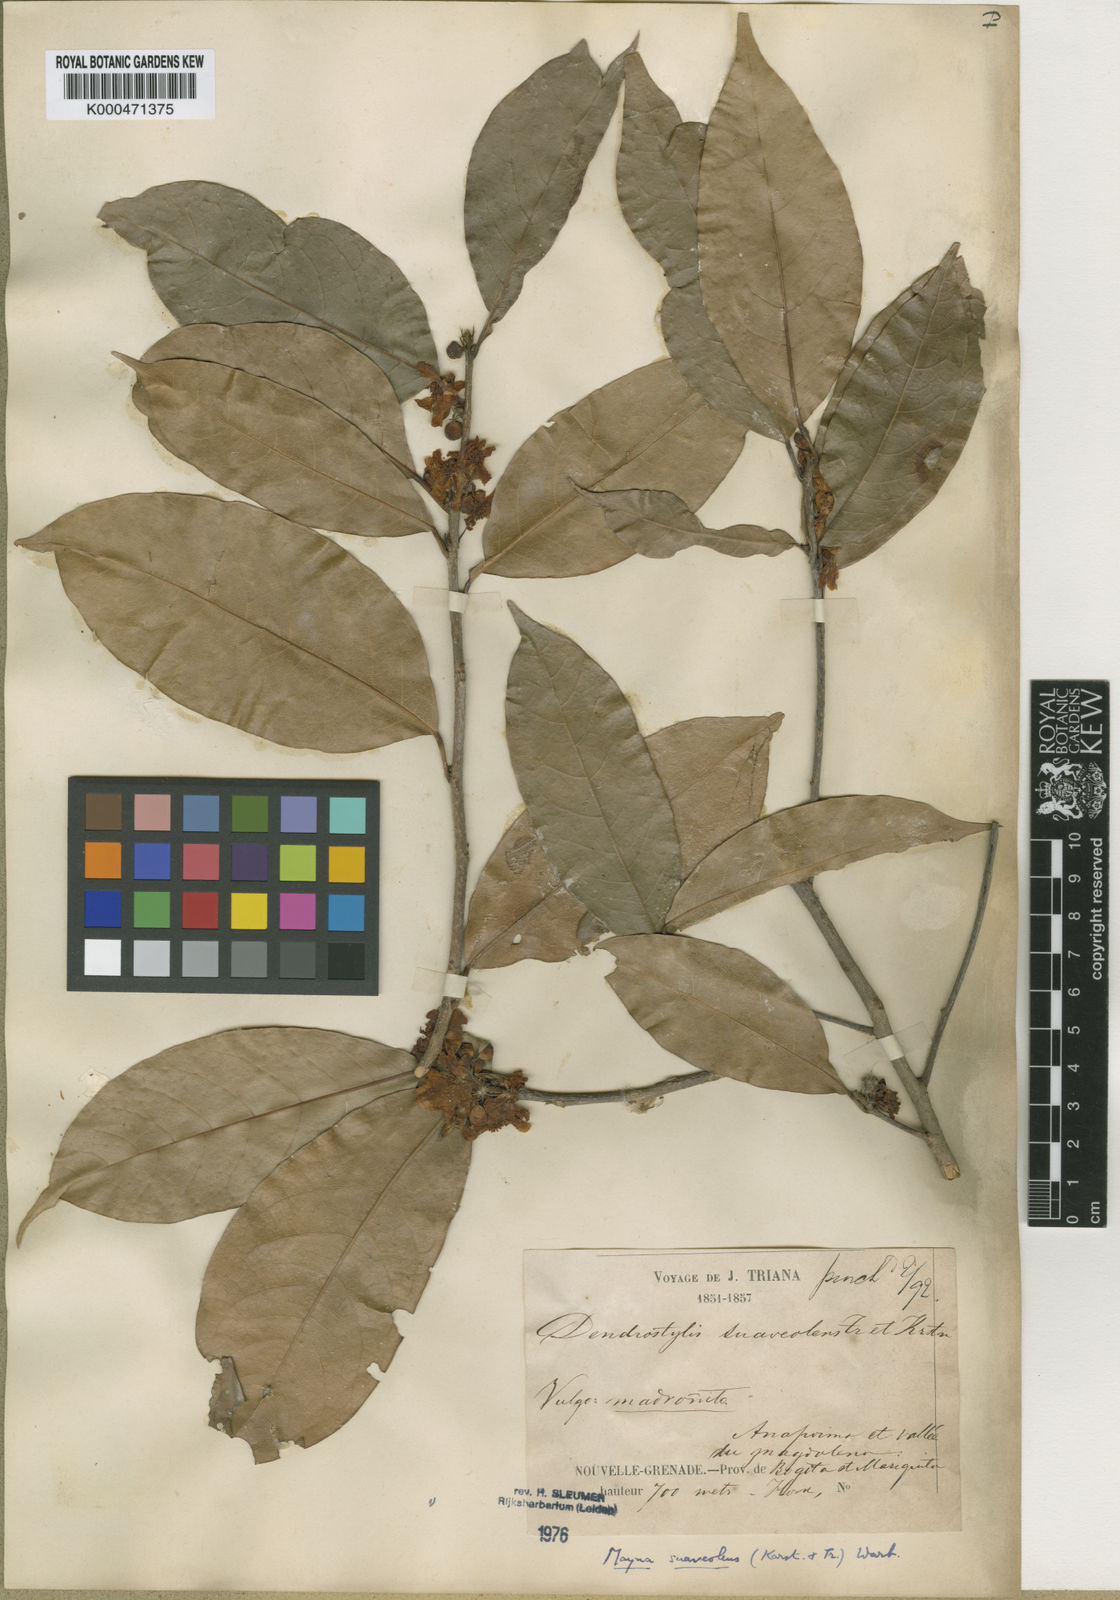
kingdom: Plantae
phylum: Tracheophyta
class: Magnoliopsida
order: Malpighiales
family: Achariaceae
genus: Mayna
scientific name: Mayna suaveolens
